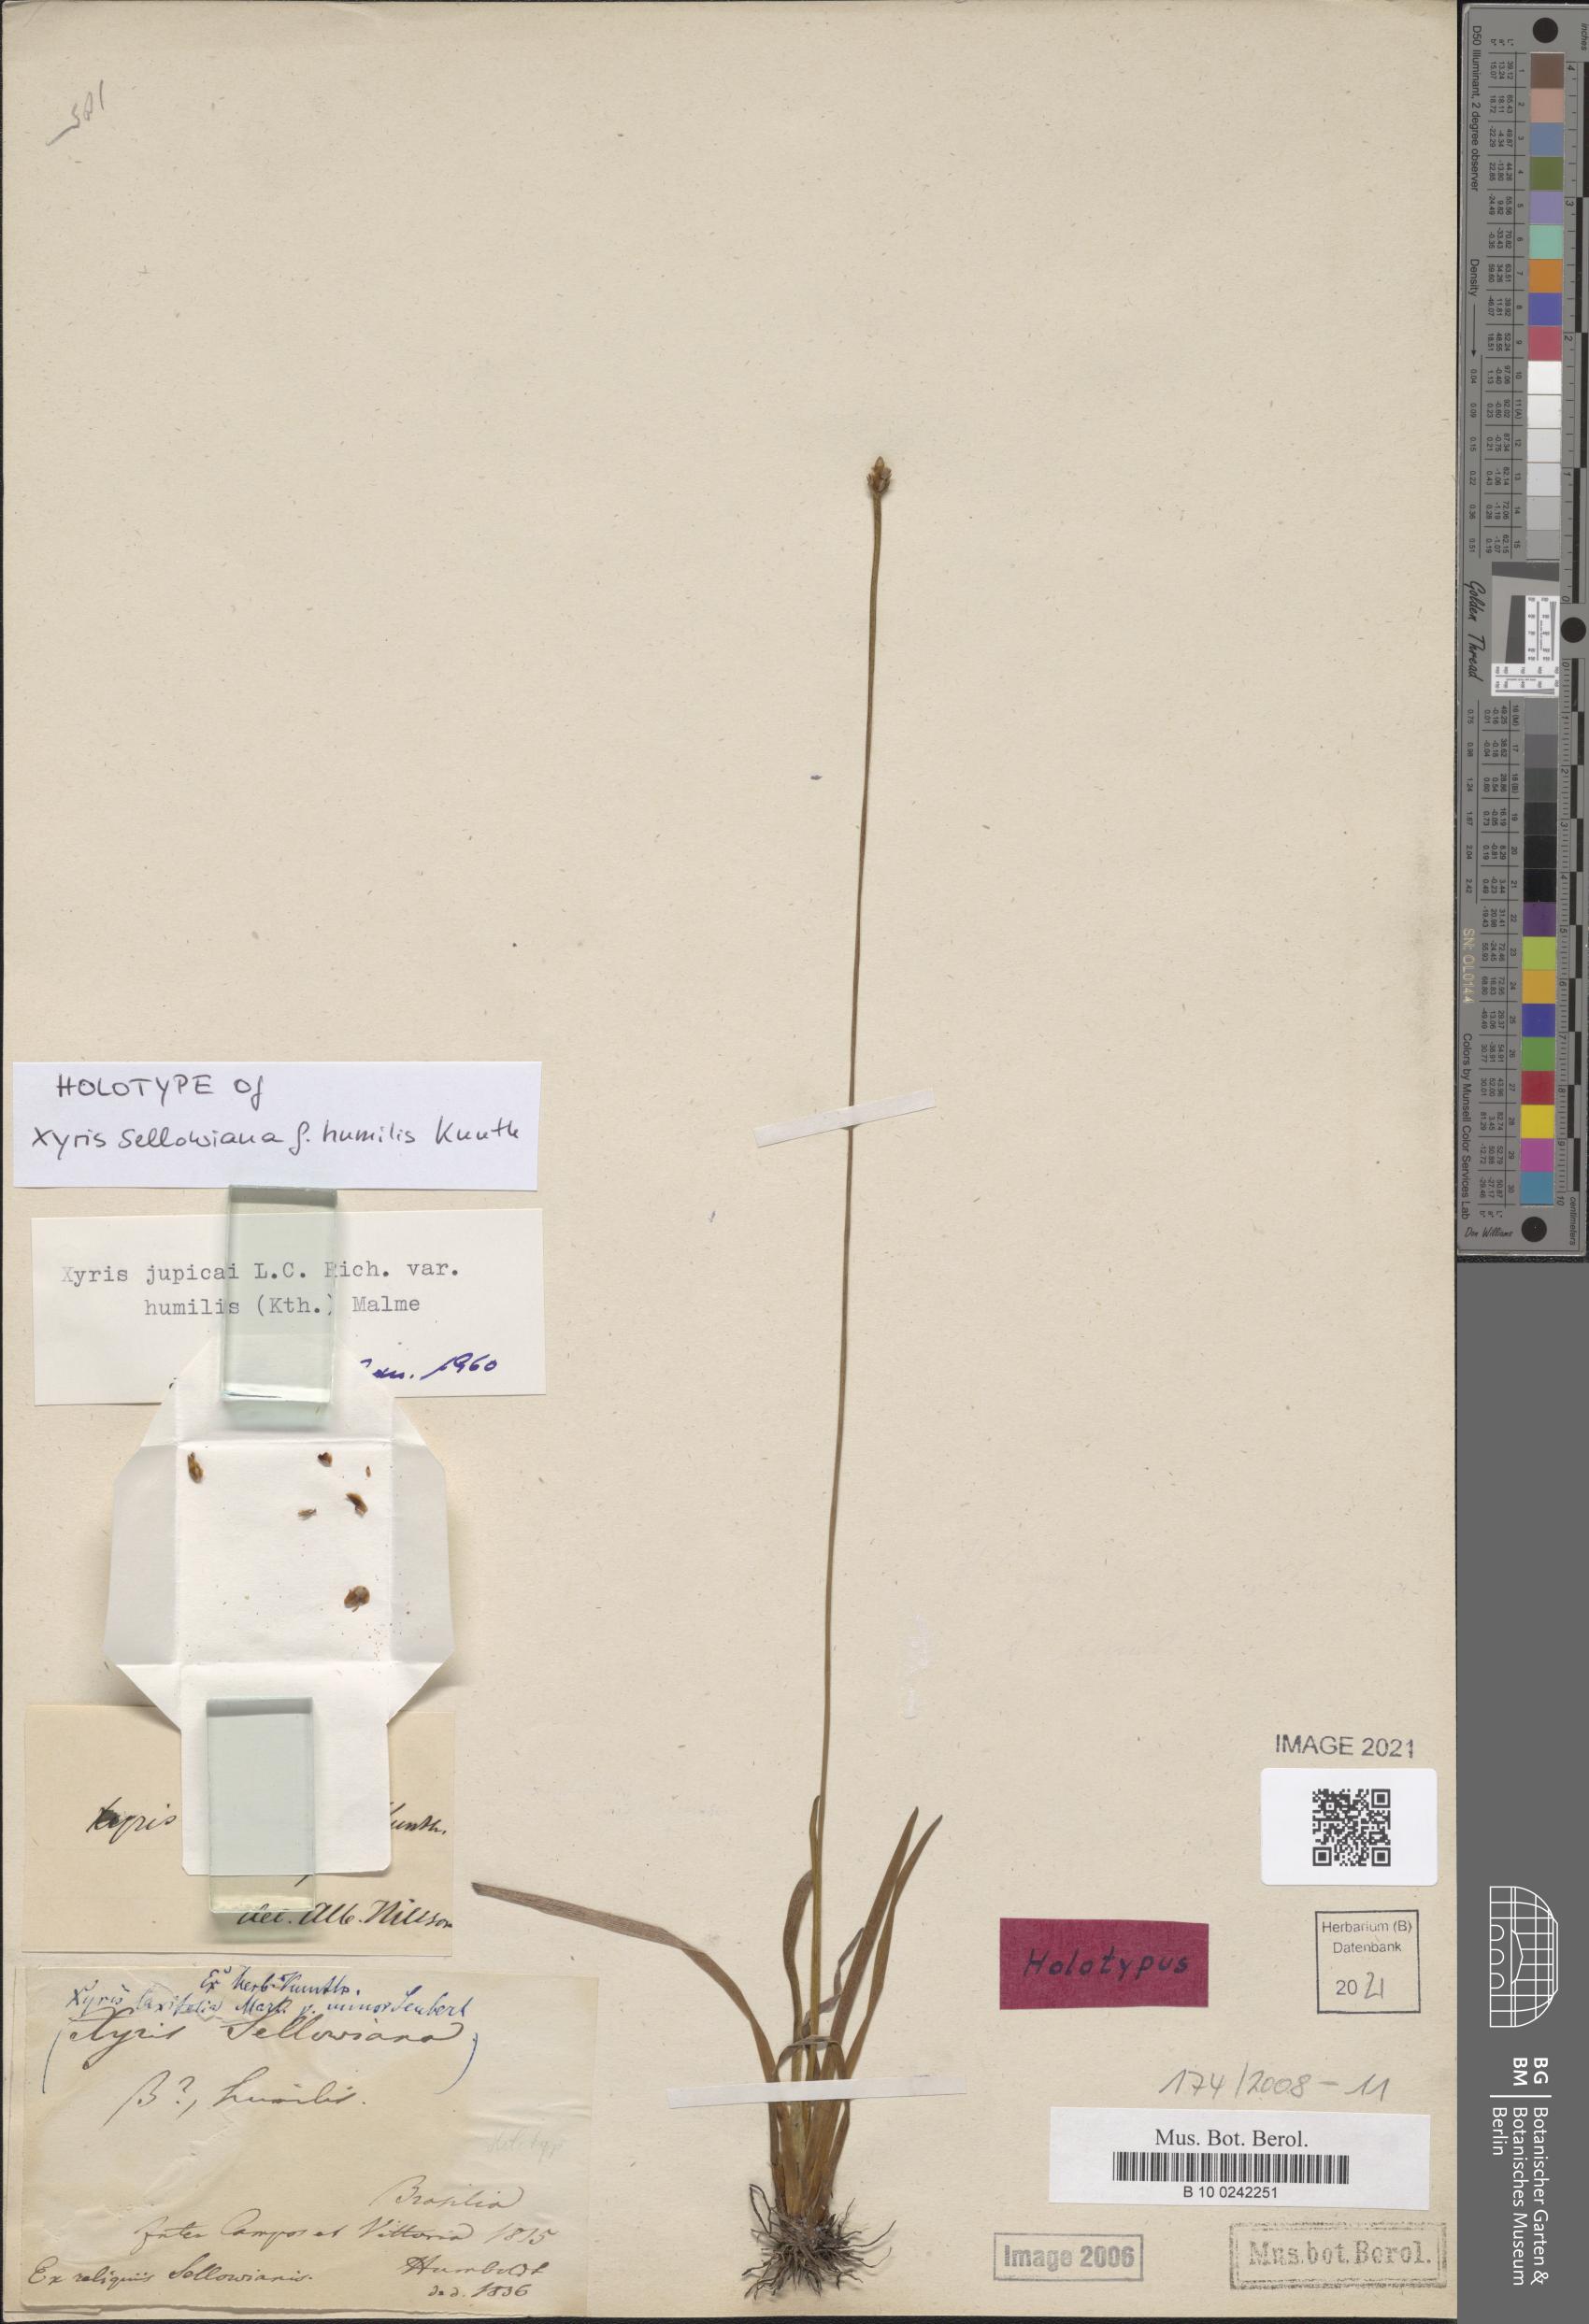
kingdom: Plantae
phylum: Tracheophyta
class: Liliopsida
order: Poales
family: Xyridaceae
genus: Xyris
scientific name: Xyris jupicai
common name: Richard's yelloweyed grass
